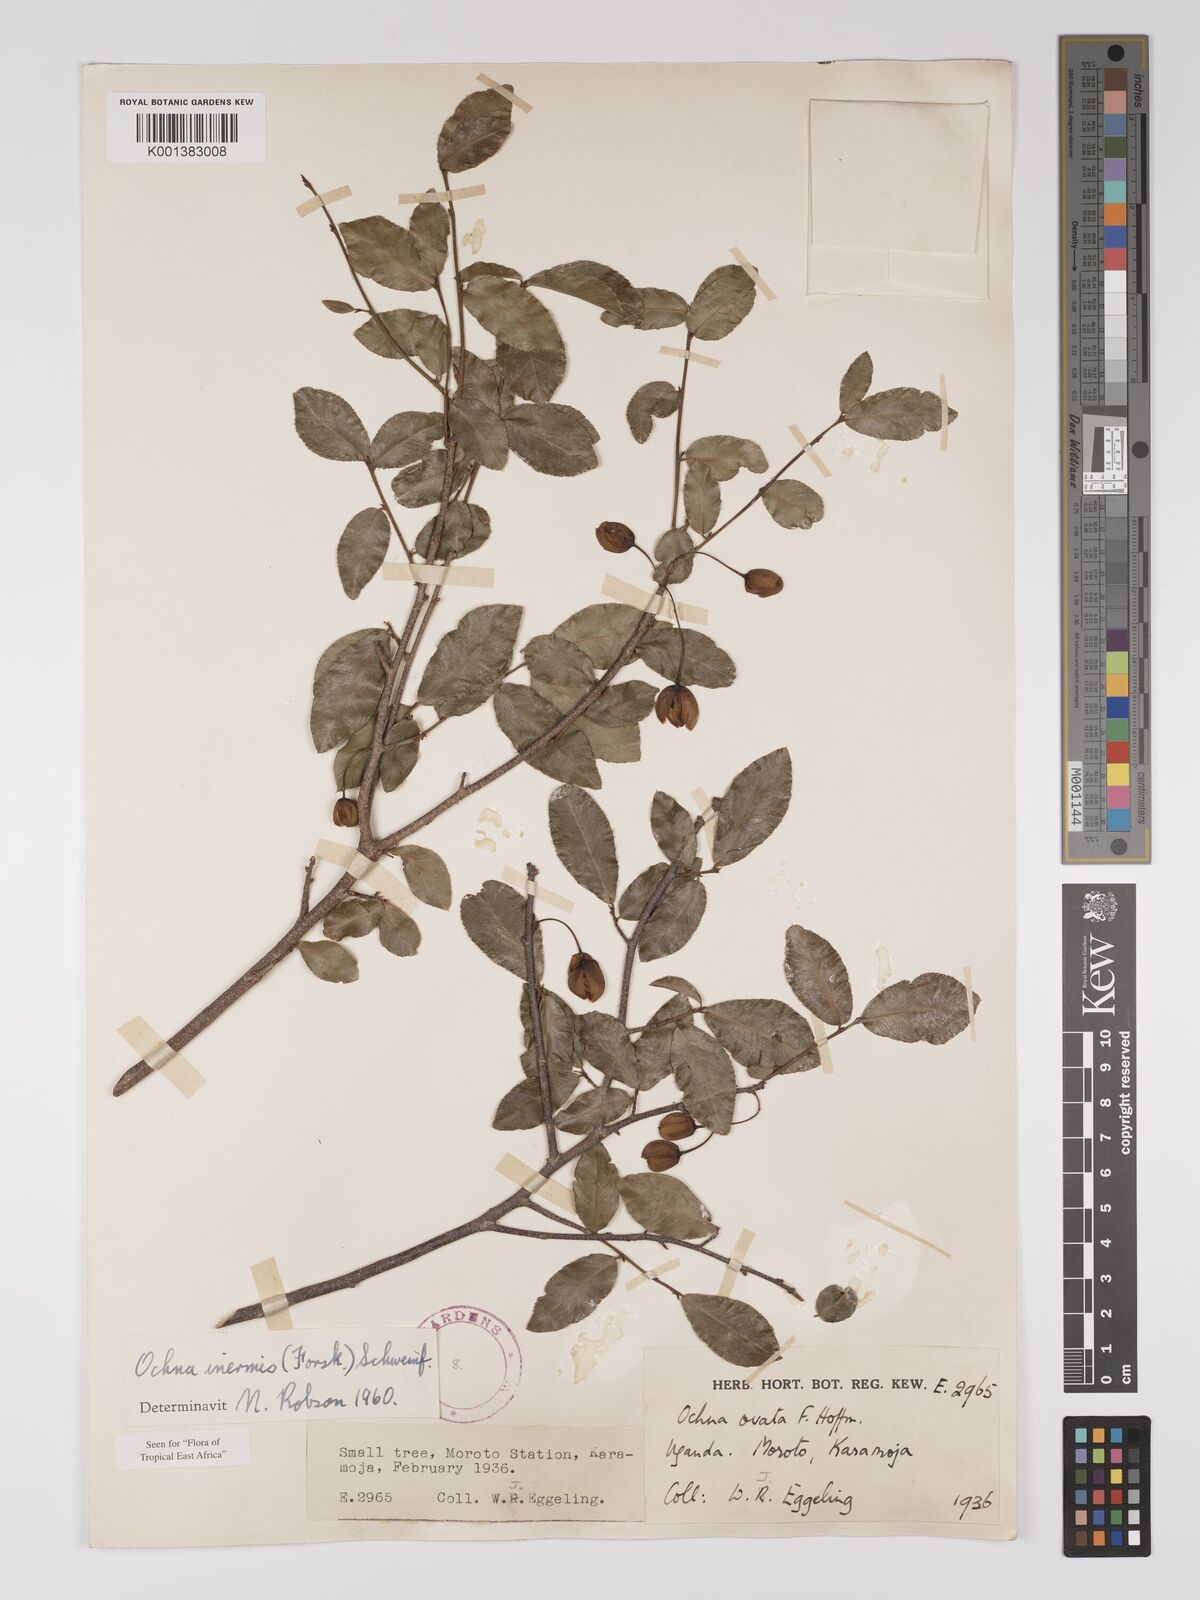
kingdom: Plantae
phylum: Tracheophyta
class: Magnoliopsida
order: Malpighiales
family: Ochnaceae
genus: Ochna
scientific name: Ochna inermis
